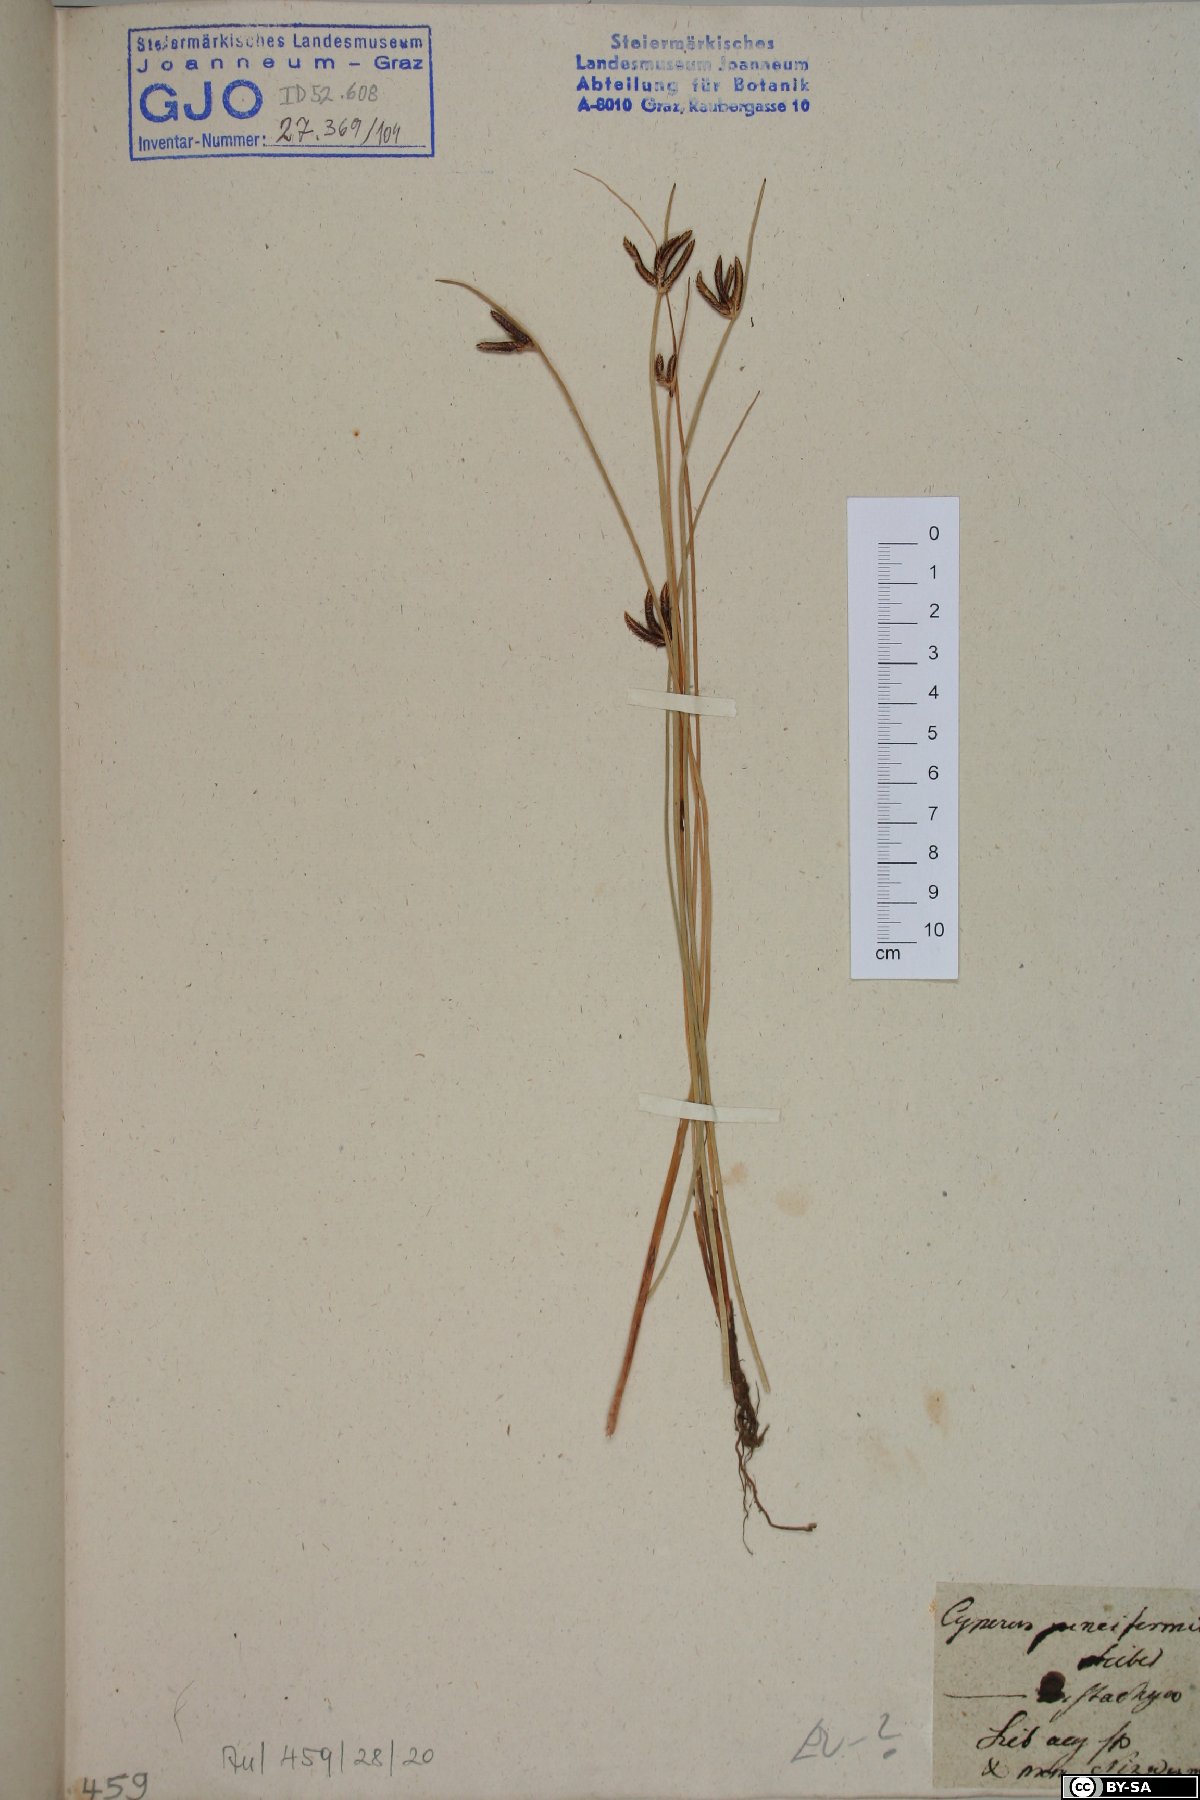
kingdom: Plantae
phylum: Tracheophyta
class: Liliopsida
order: Poales
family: Cyperaceae
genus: Cyperus
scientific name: Cyperus laevigatus
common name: Smooth flat sedge
